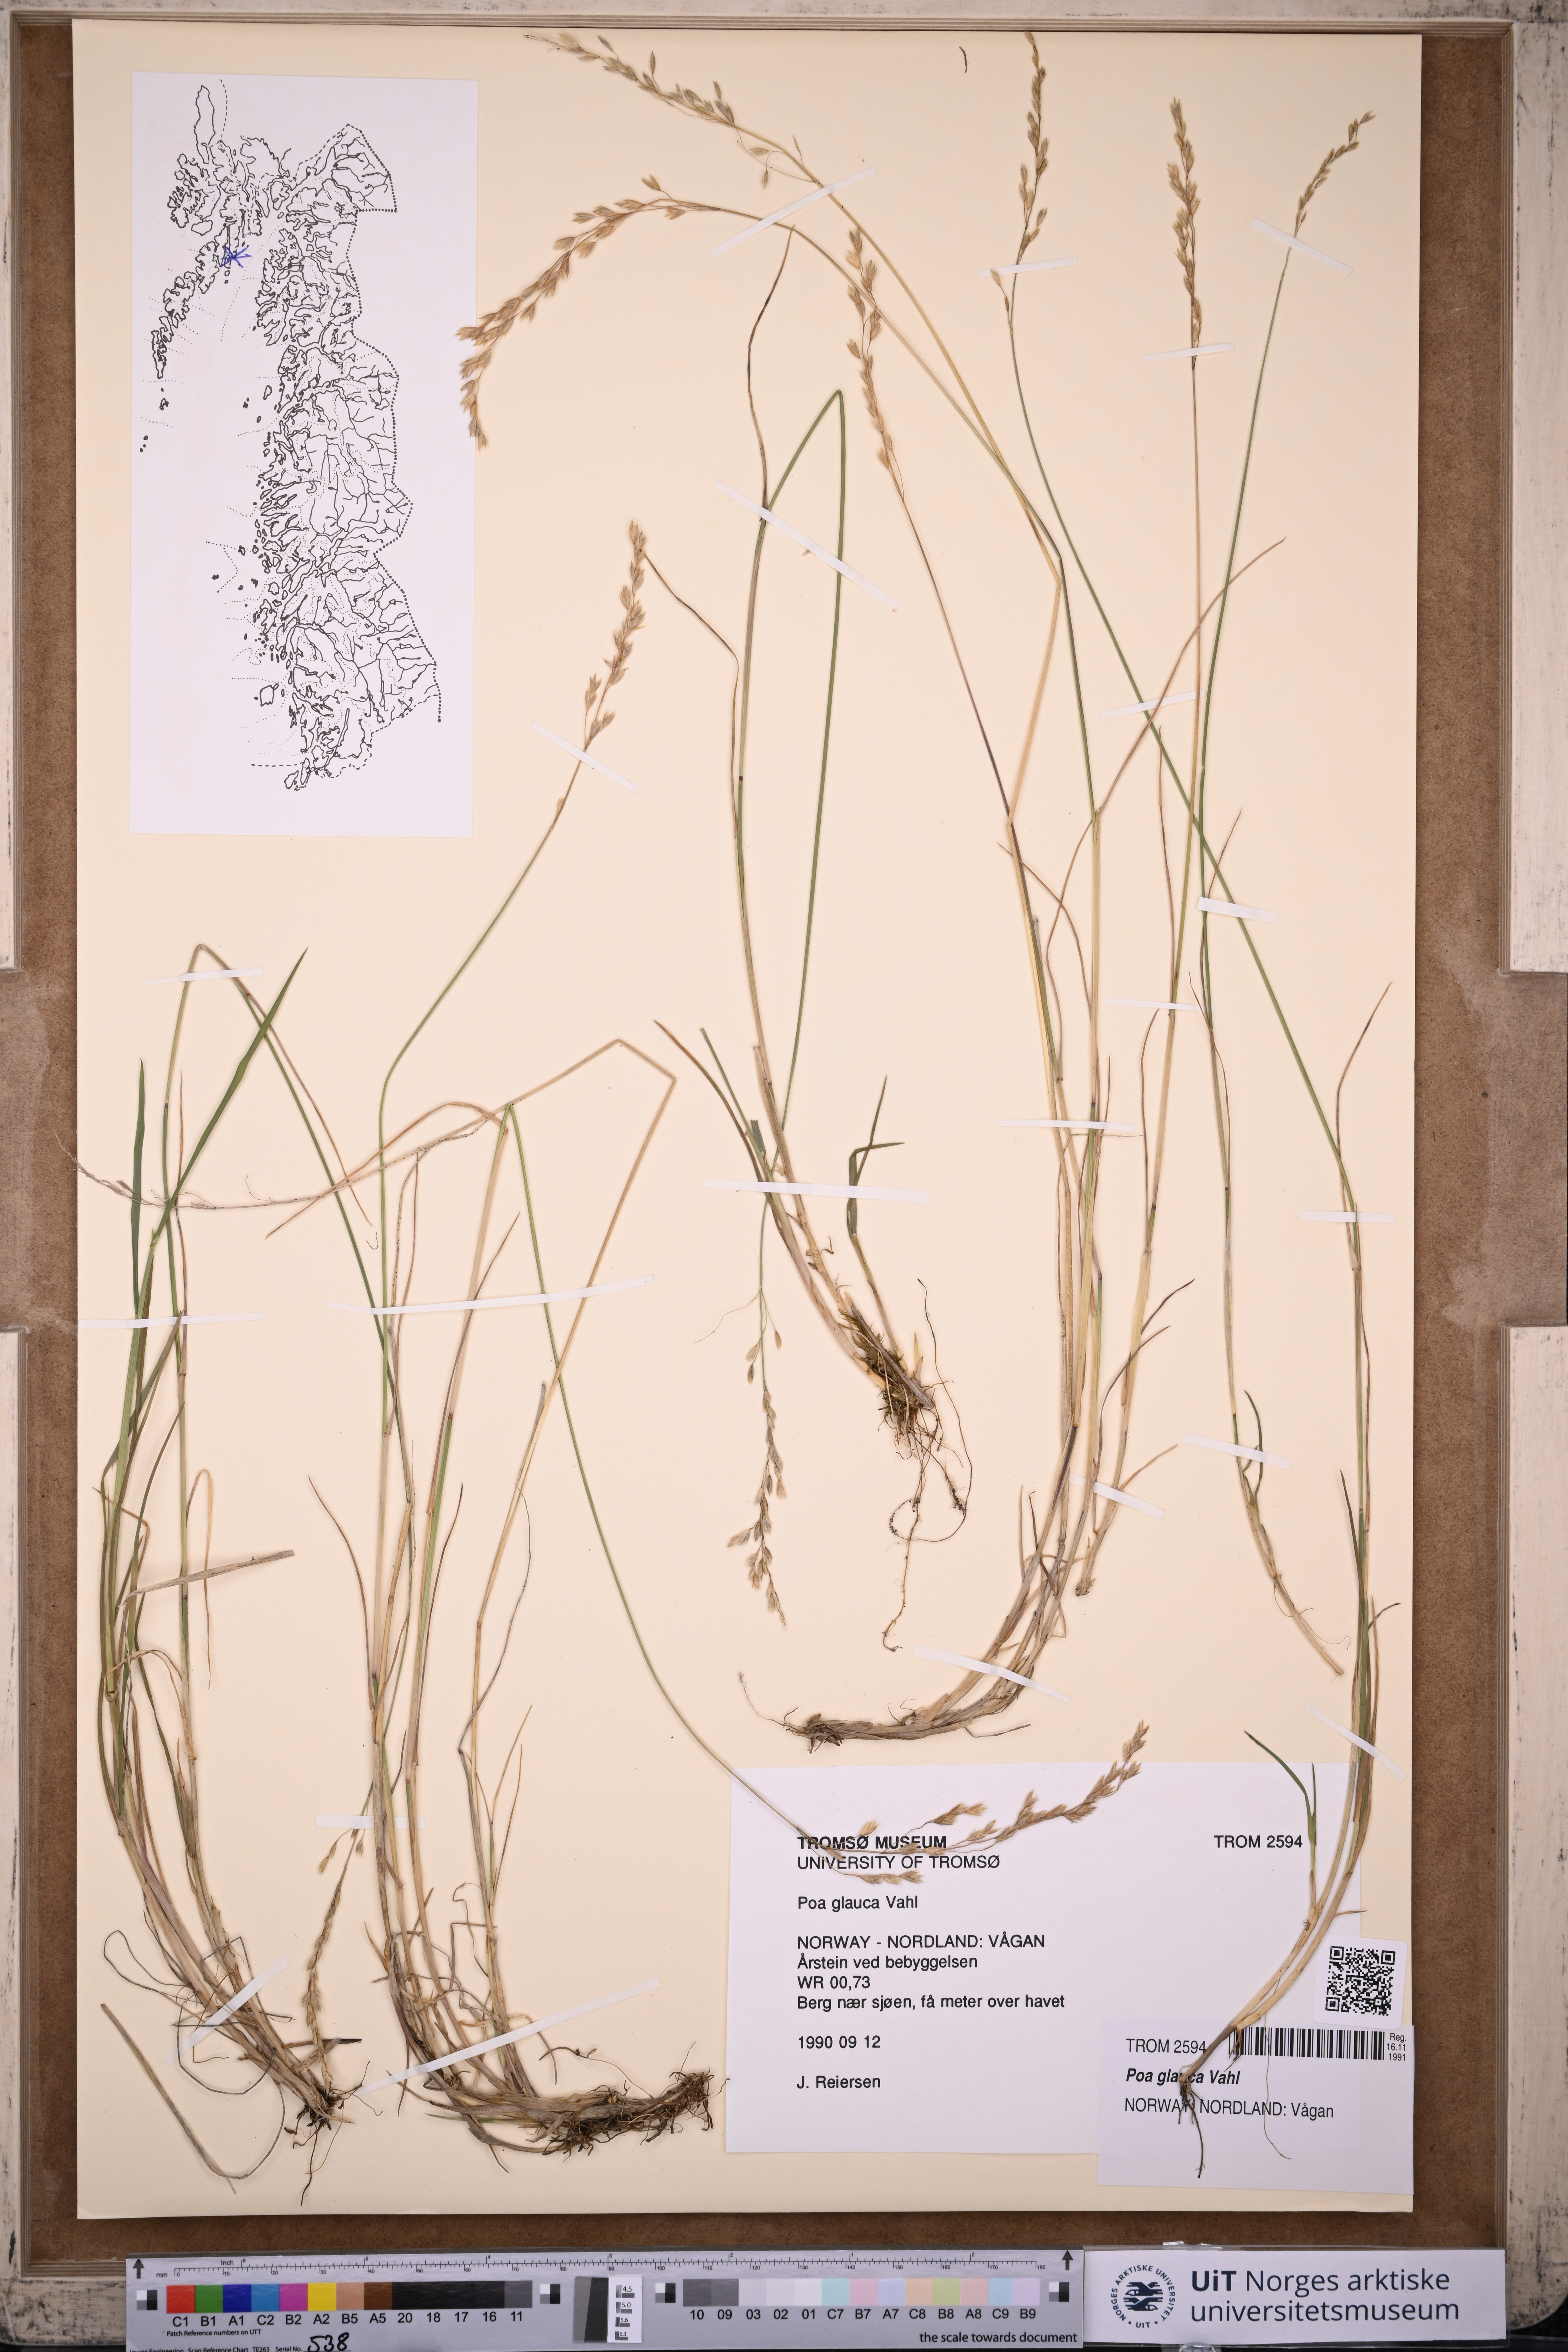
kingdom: Plantae
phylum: Tracheophyta
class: Liliopsida
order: Poales
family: Poaceae
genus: Poa
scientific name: Poa glauca
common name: Glaucous bluegrass
